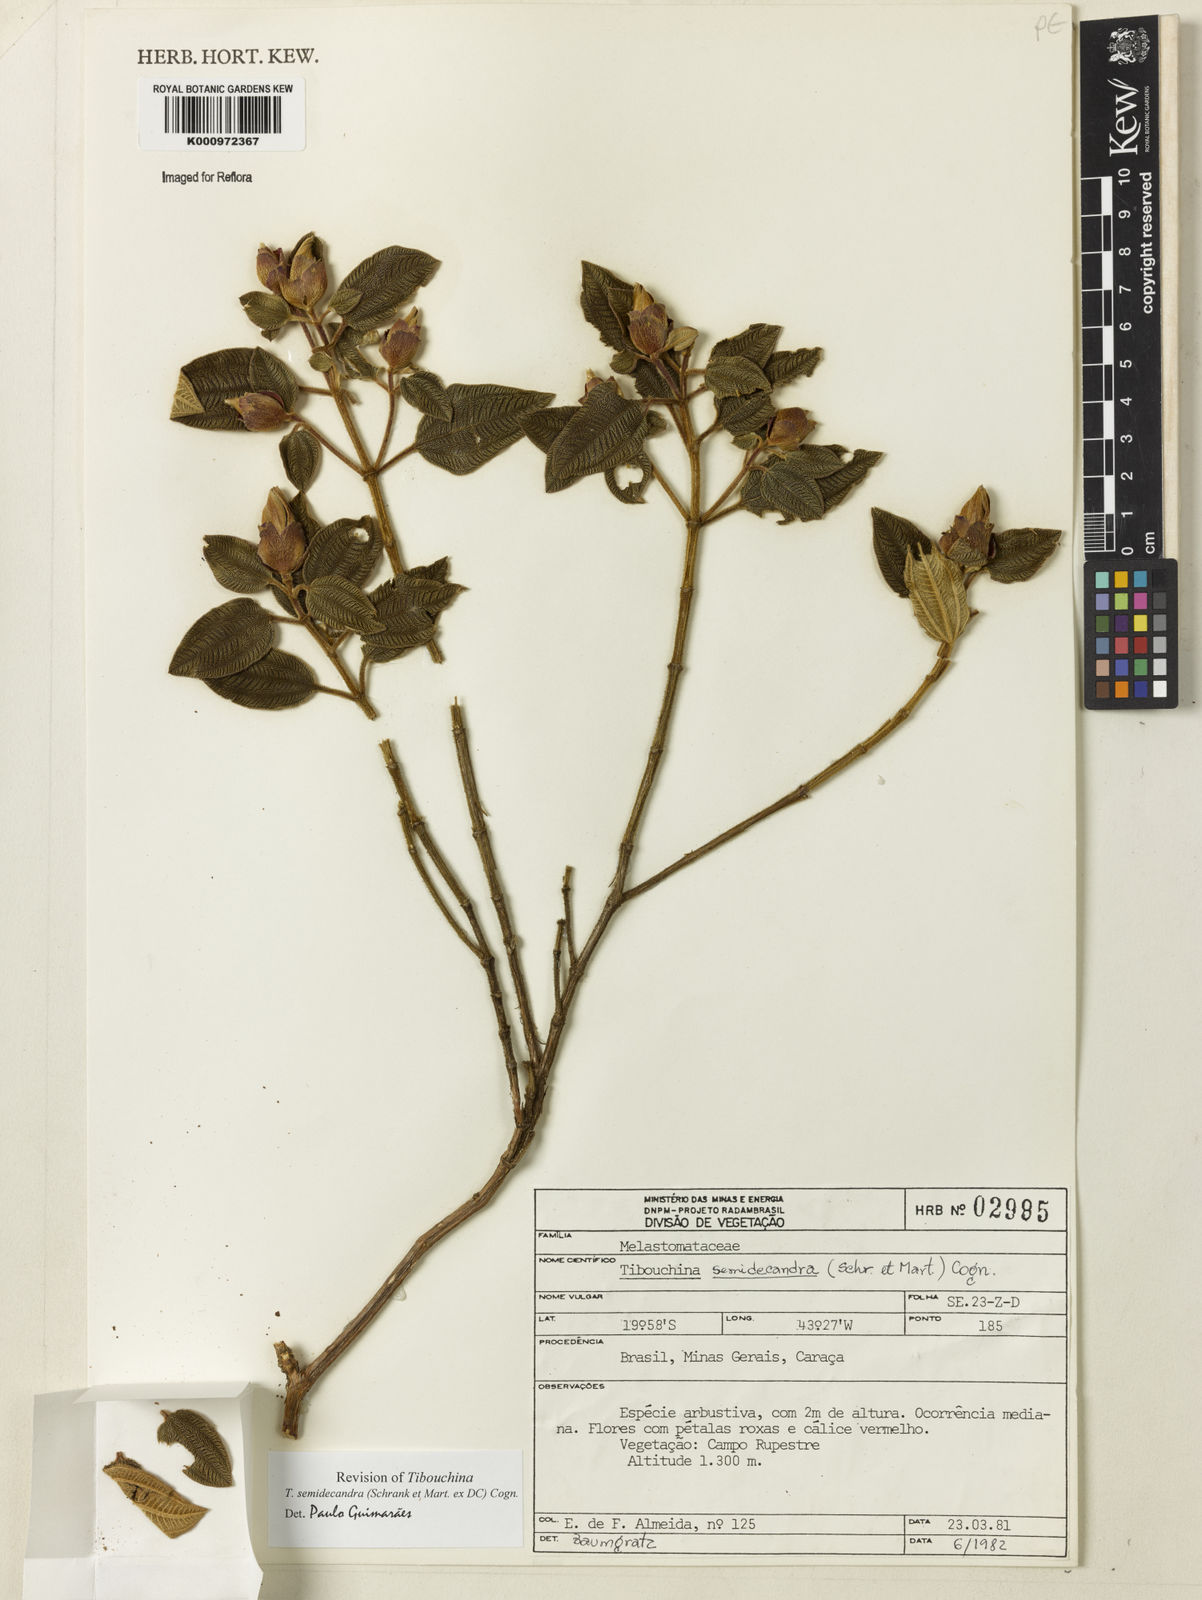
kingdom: Plantae
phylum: Tracheophyta
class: Magnoliopsida
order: Myrtales
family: Melastomataceae
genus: Pleroma
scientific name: Pleroma semidecandrum
